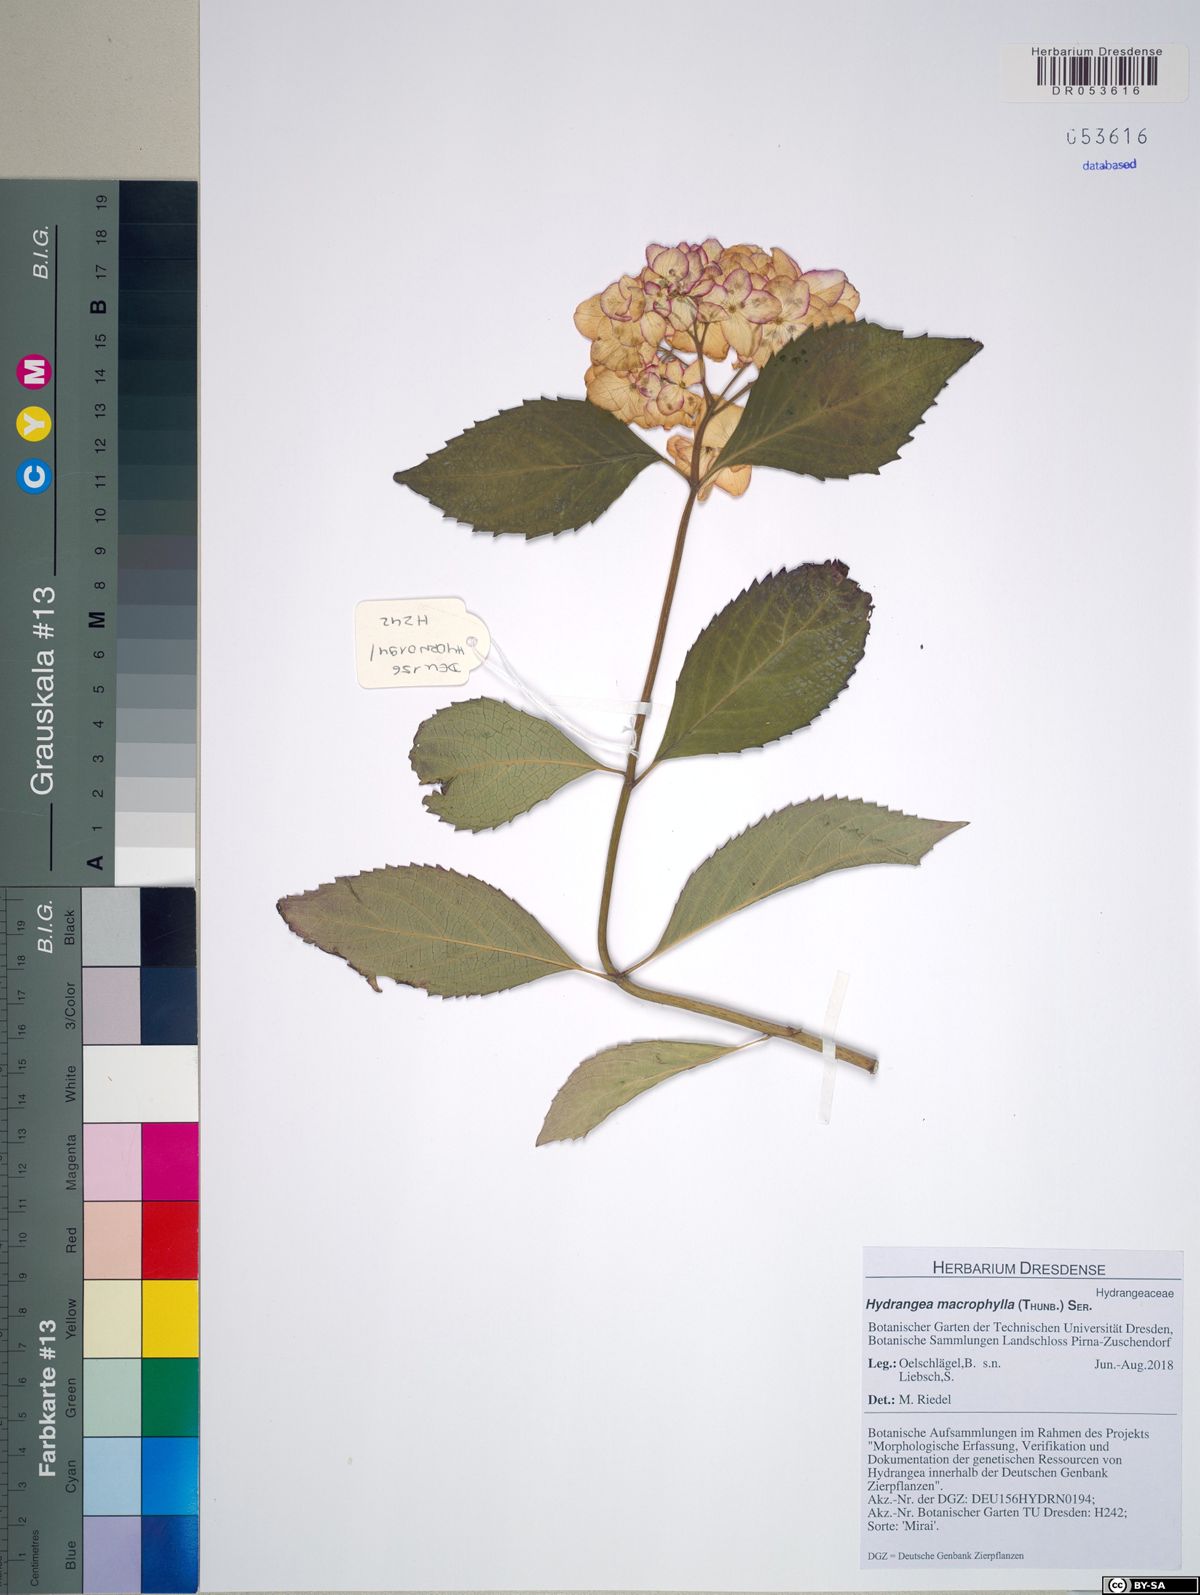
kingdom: Plantae
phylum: Tracheophyta
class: Magnoliopsida
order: Cornales
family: Hydrangeaceae
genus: Hydrangea
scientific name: Hydrangea macrophylla
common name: Hydrangea
